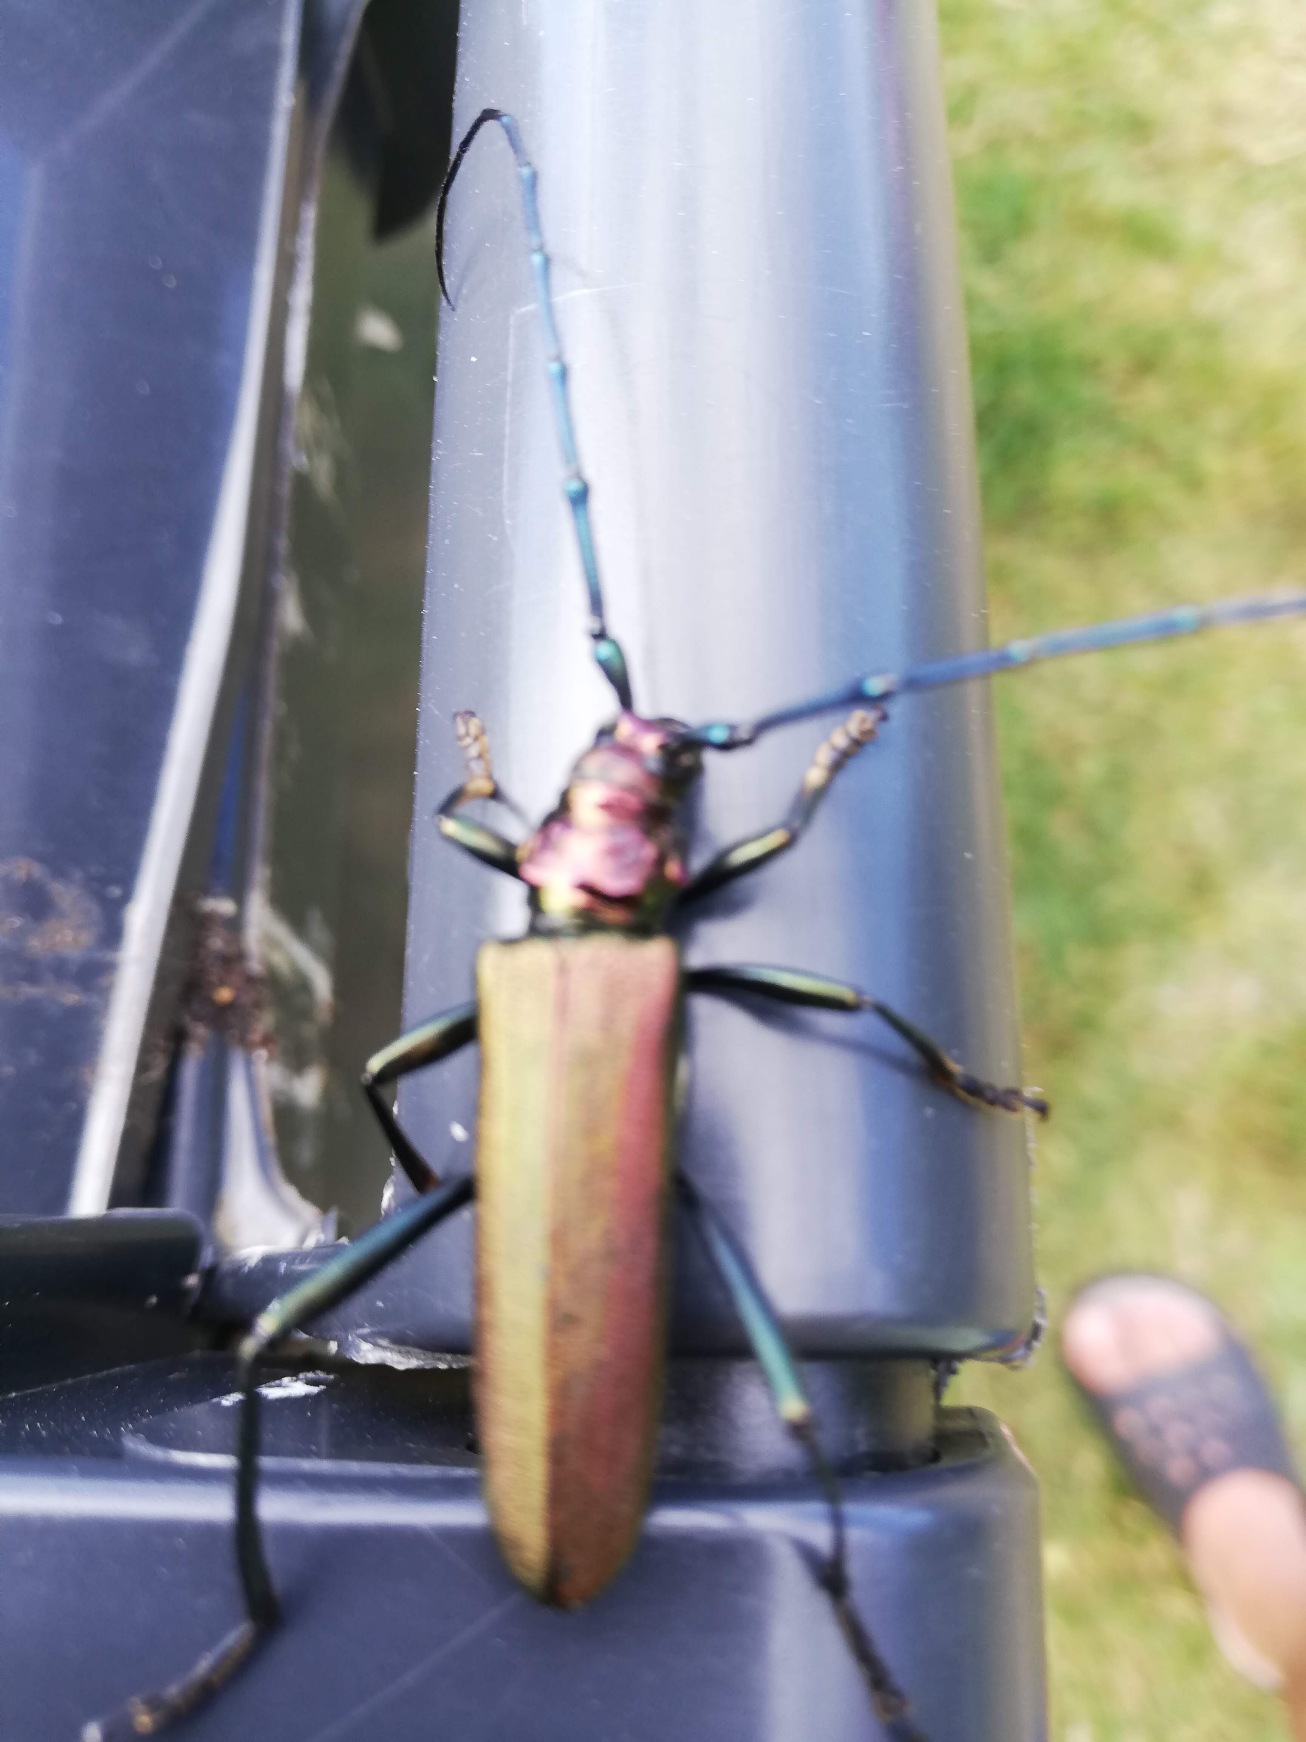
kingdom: Animalia
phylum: Arthropoda
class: Insecta
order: Coleoptera
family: Cerambycidae
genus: Aromia
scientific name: Aromia moschata
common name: Moskusbuk
